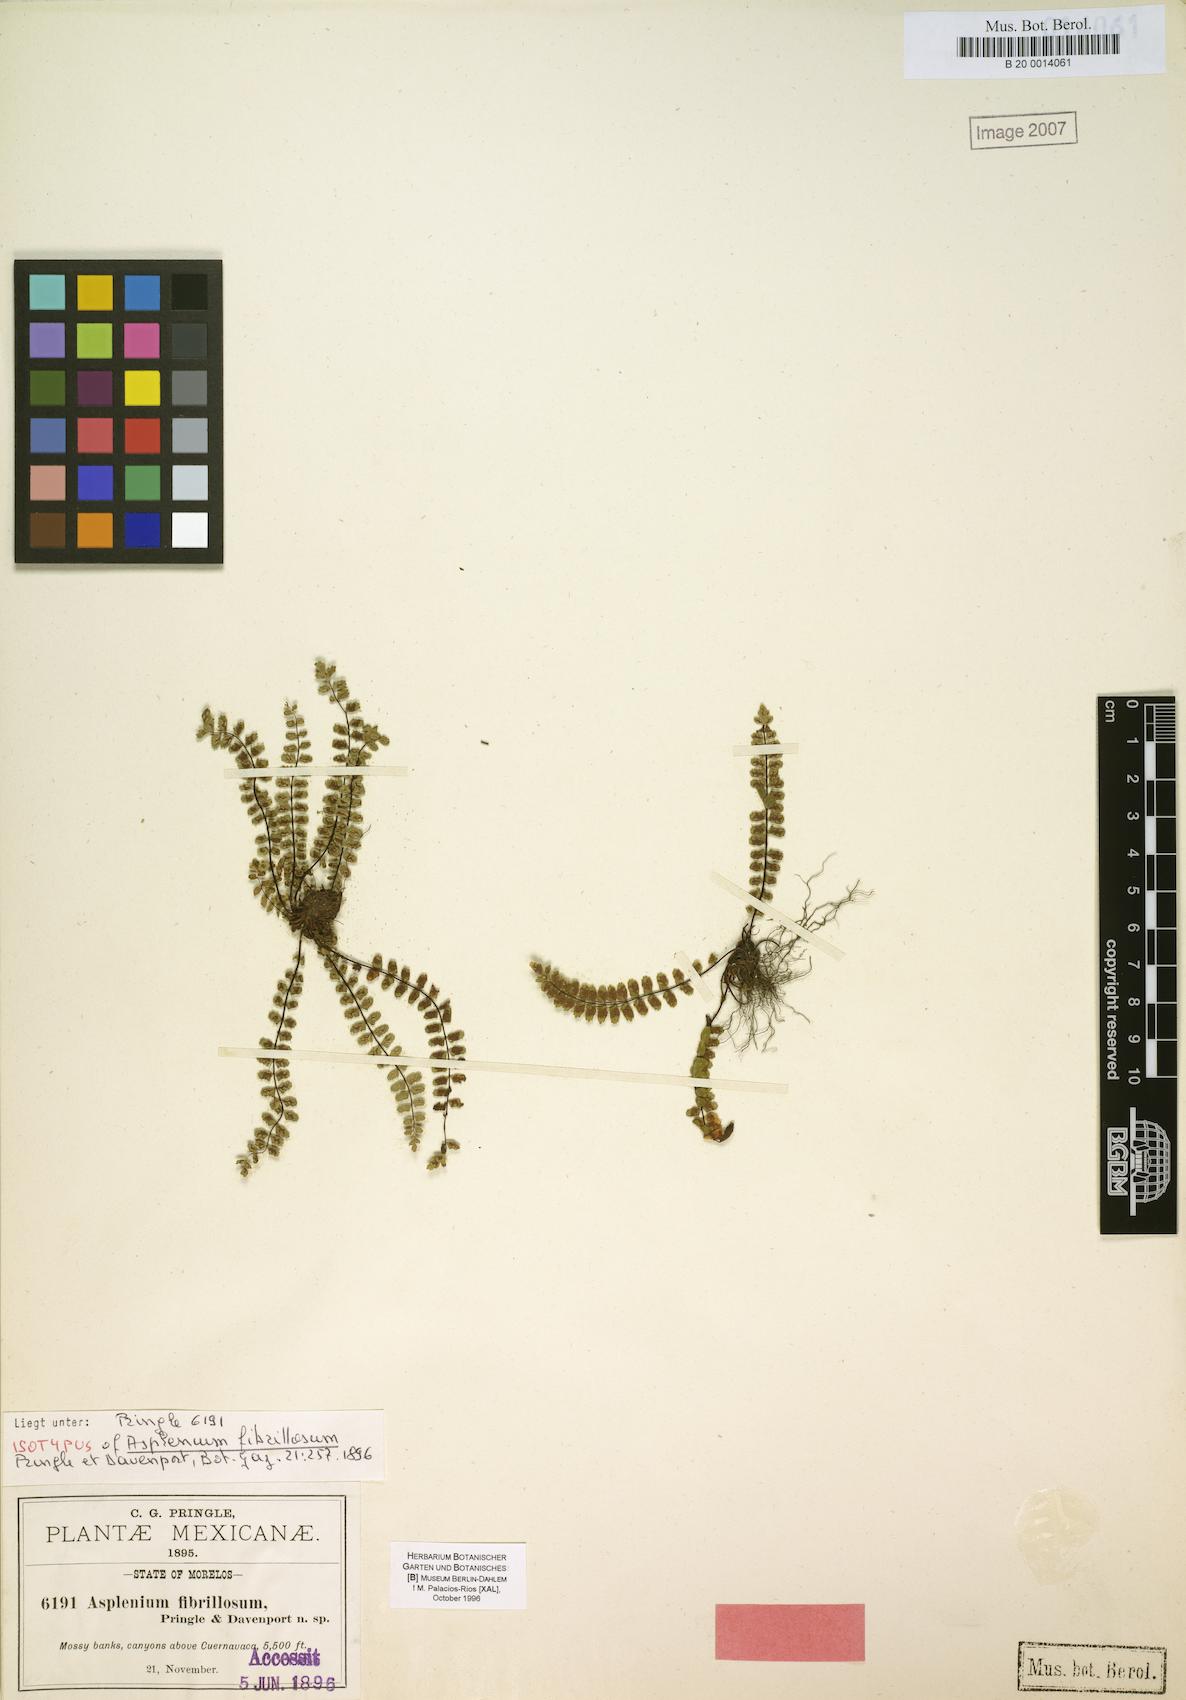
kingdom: Plantae
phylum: Tracheophyta
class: Polypodiopsida
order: Polypodiales
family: Aspleniaceae
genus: Asplenium
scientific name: Asplenium fibrillosum
